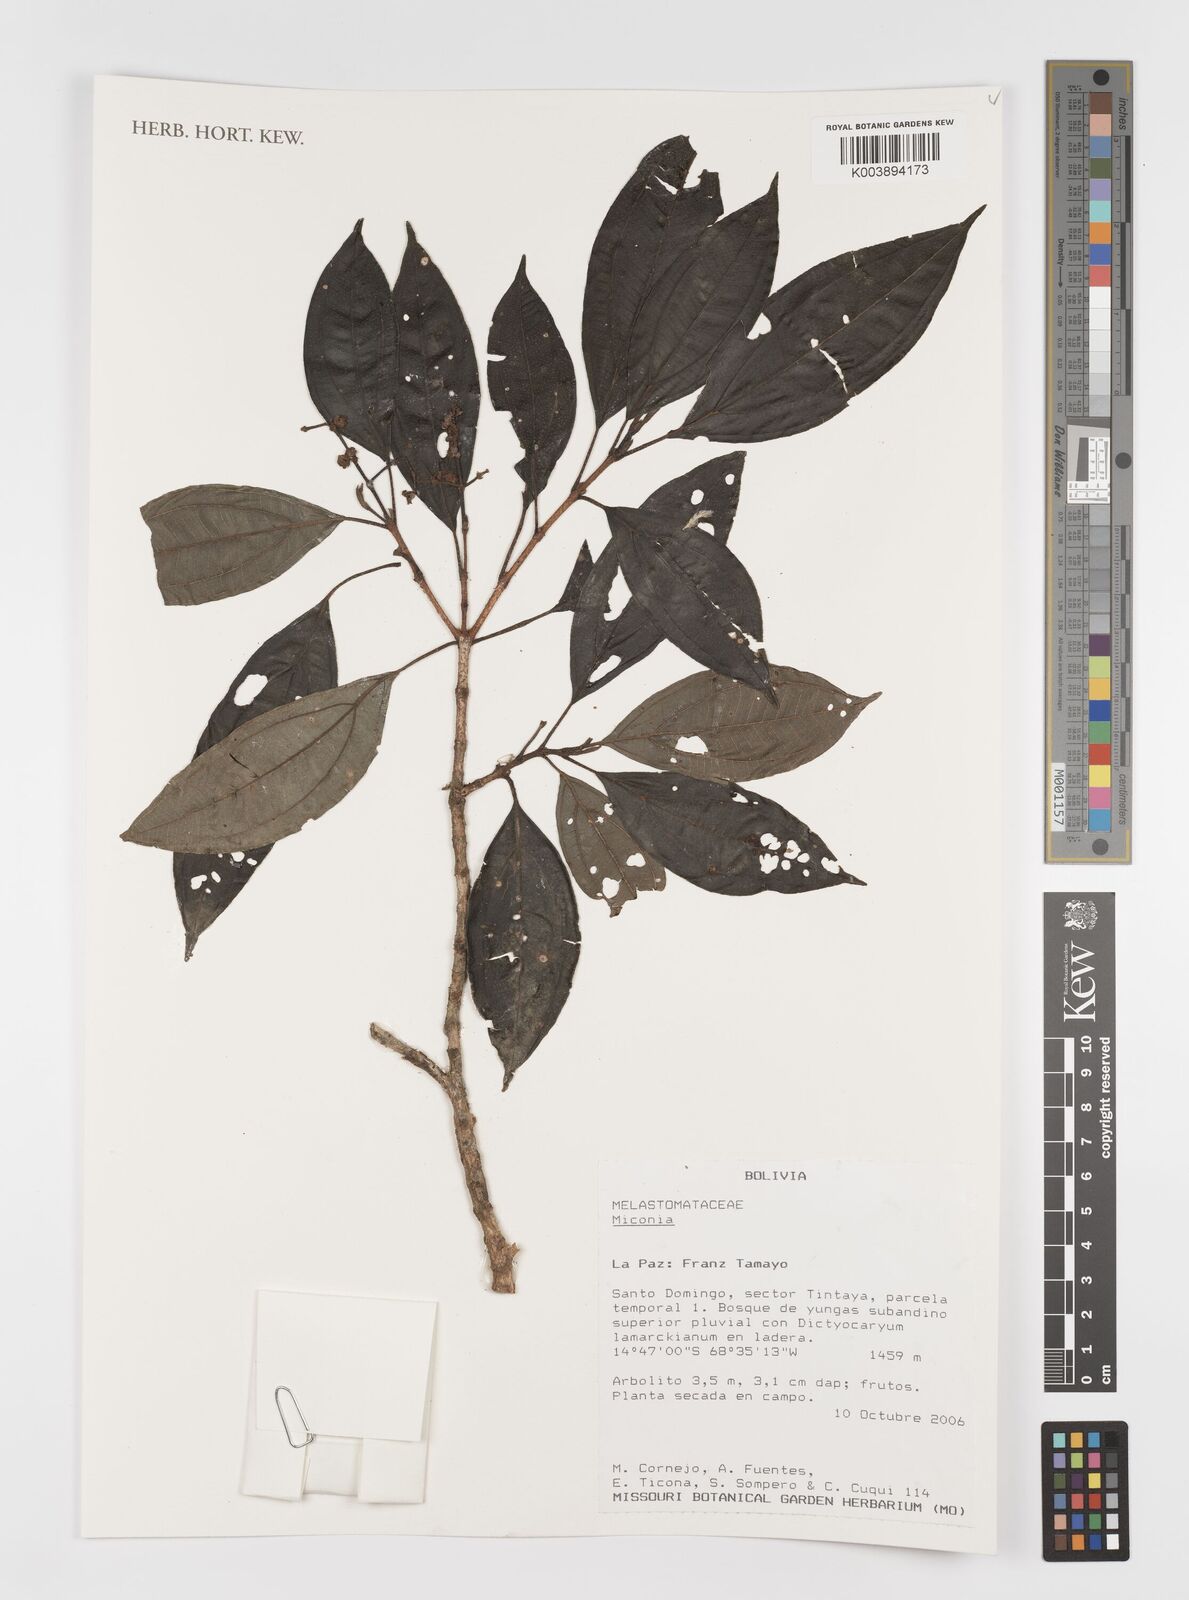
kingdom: Plantae
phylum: Tracheophyta
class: Magnoliopsida
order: Myrtales
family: Melastomataceae
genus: Miconia
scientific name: Miconia
